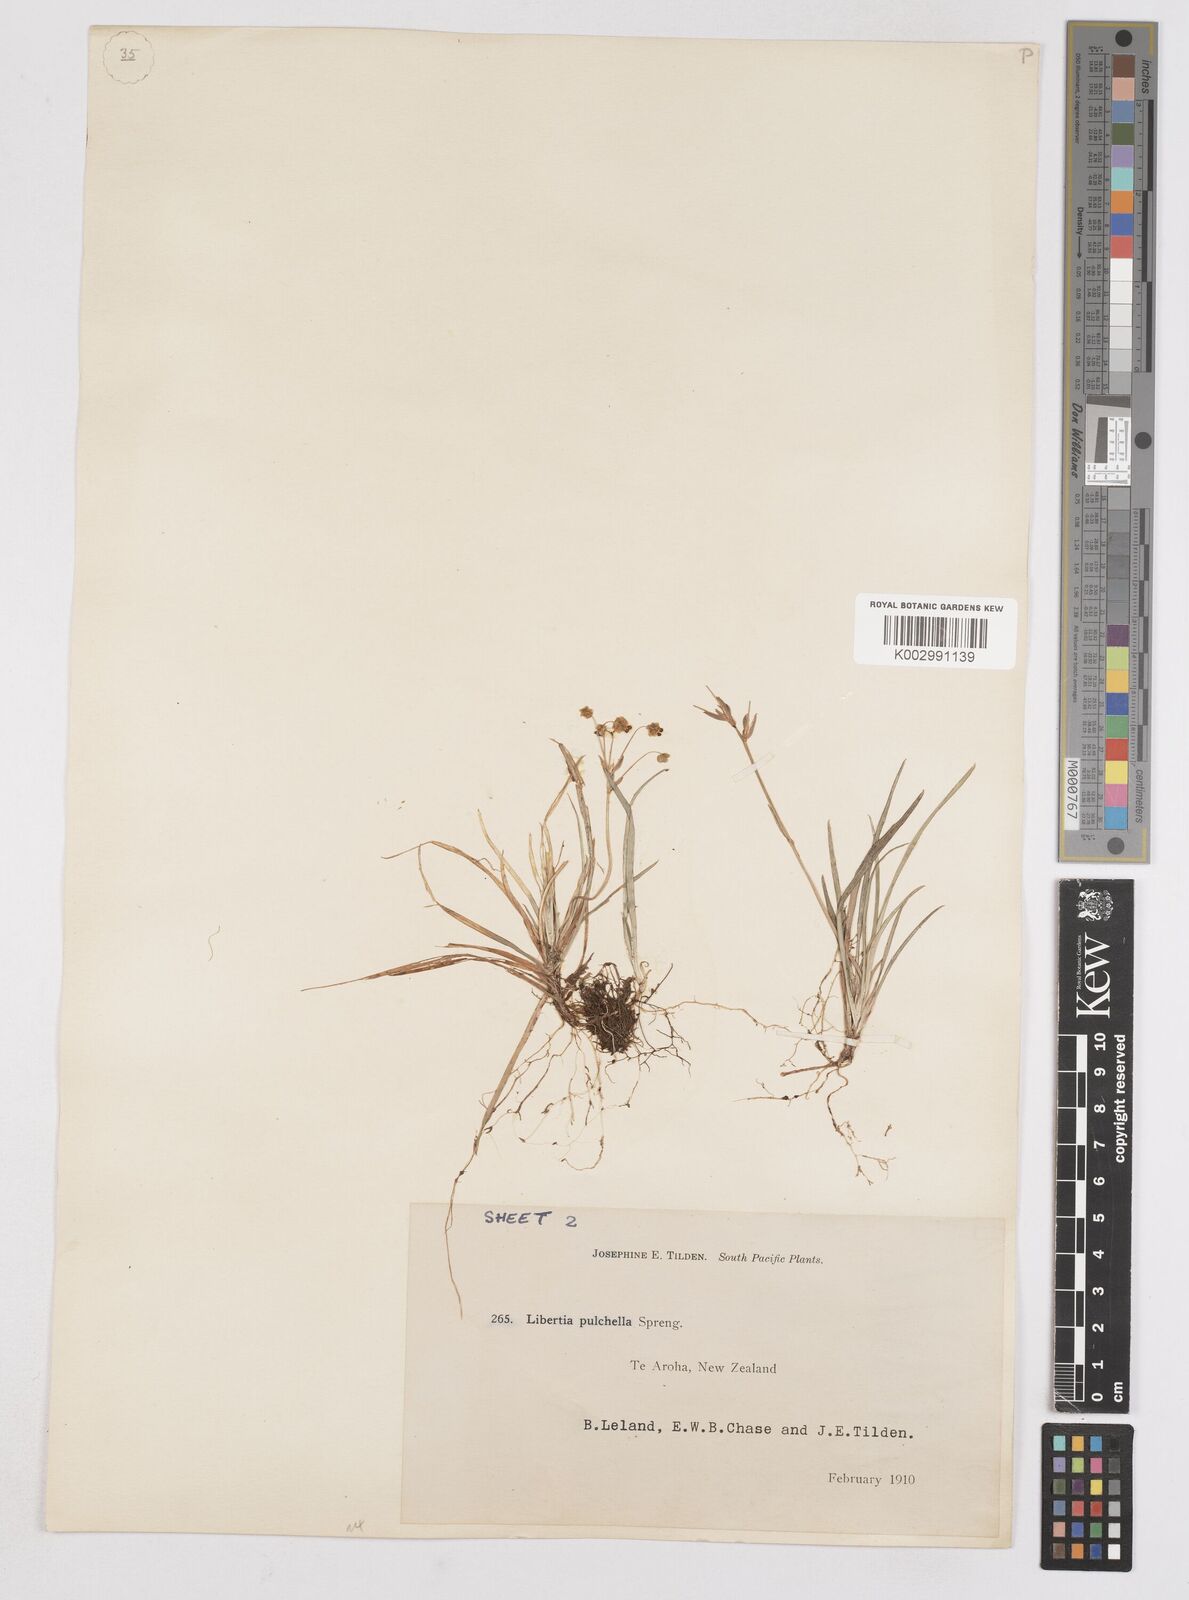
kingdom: Plantae
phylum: Tracheophyta
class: Liliopsida
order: Asparagales
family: Iridaceae
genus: Libertia
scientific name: Libertia pulchella
